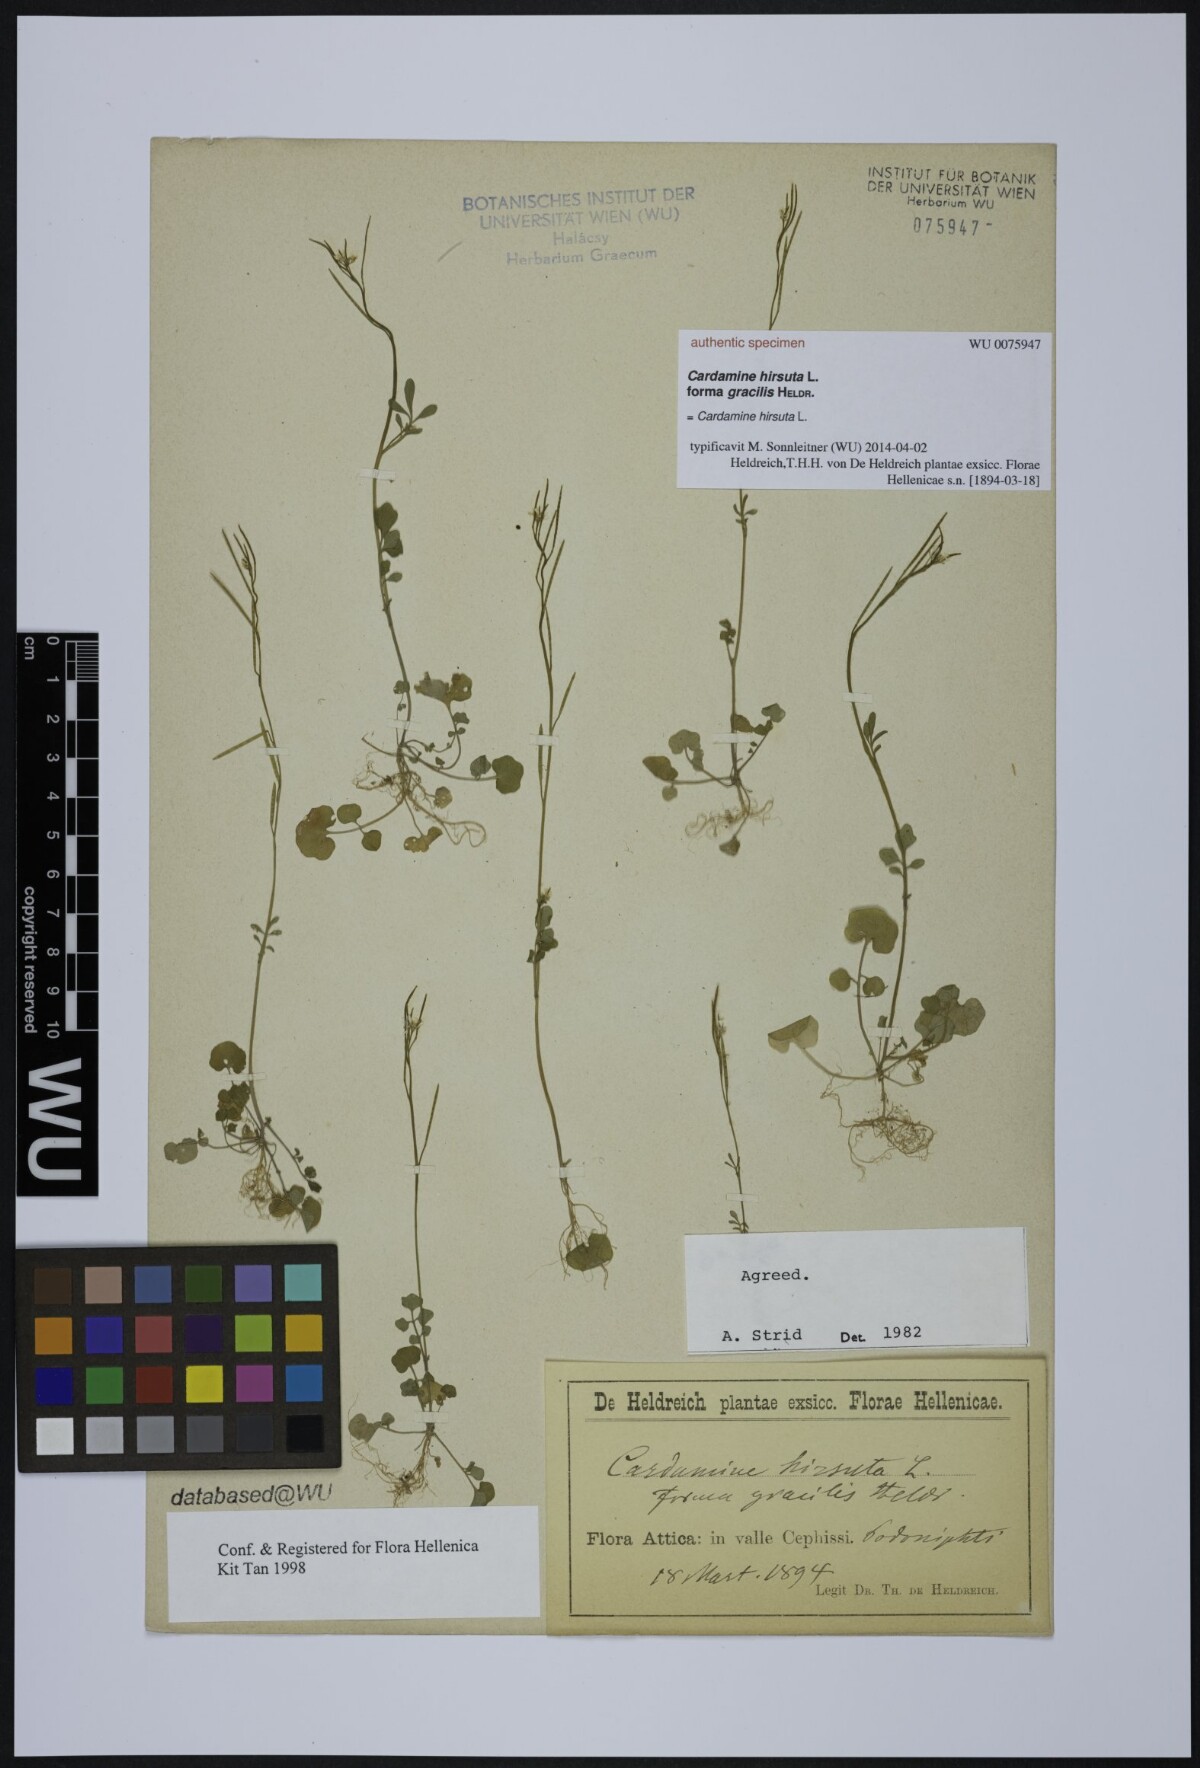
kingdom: Plantae
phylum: Tracheophyta
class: Magnoliopsida
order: Brassicales
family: Brassicaceae
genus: Cardamine
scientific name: Cardamine hirsuta
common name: Hairy bittercress
